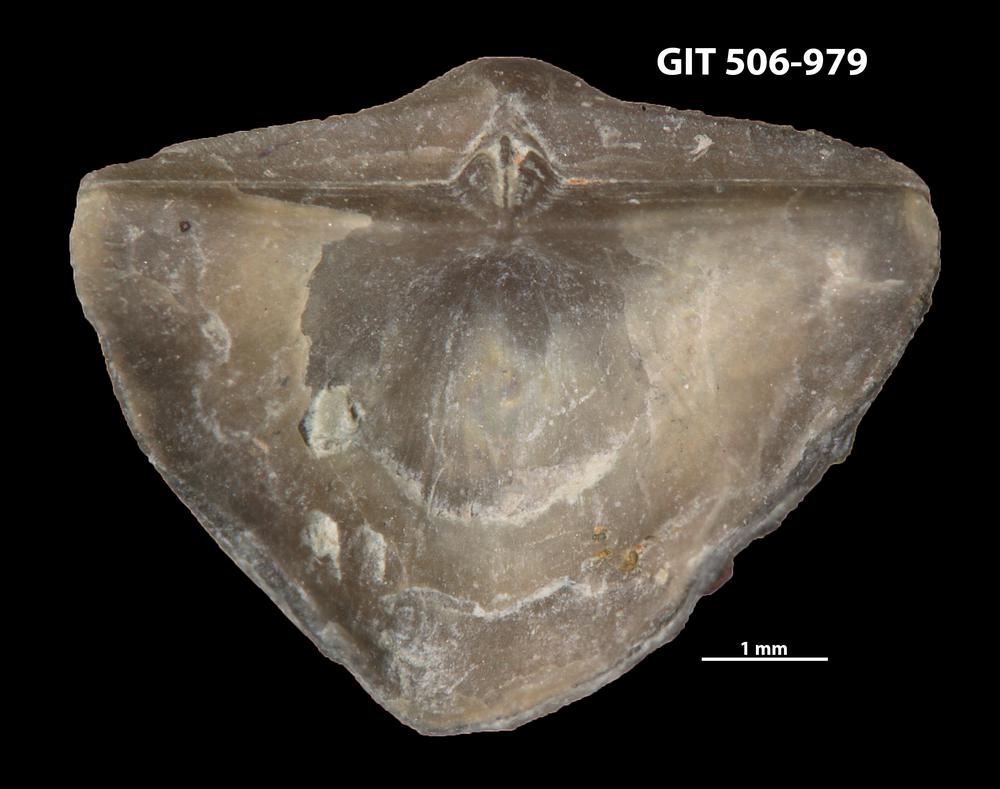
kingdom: Animalia
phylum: Brachiopoda
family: Leptellinidae
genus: Leangella
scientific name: Leangella Plectambonites scissa
